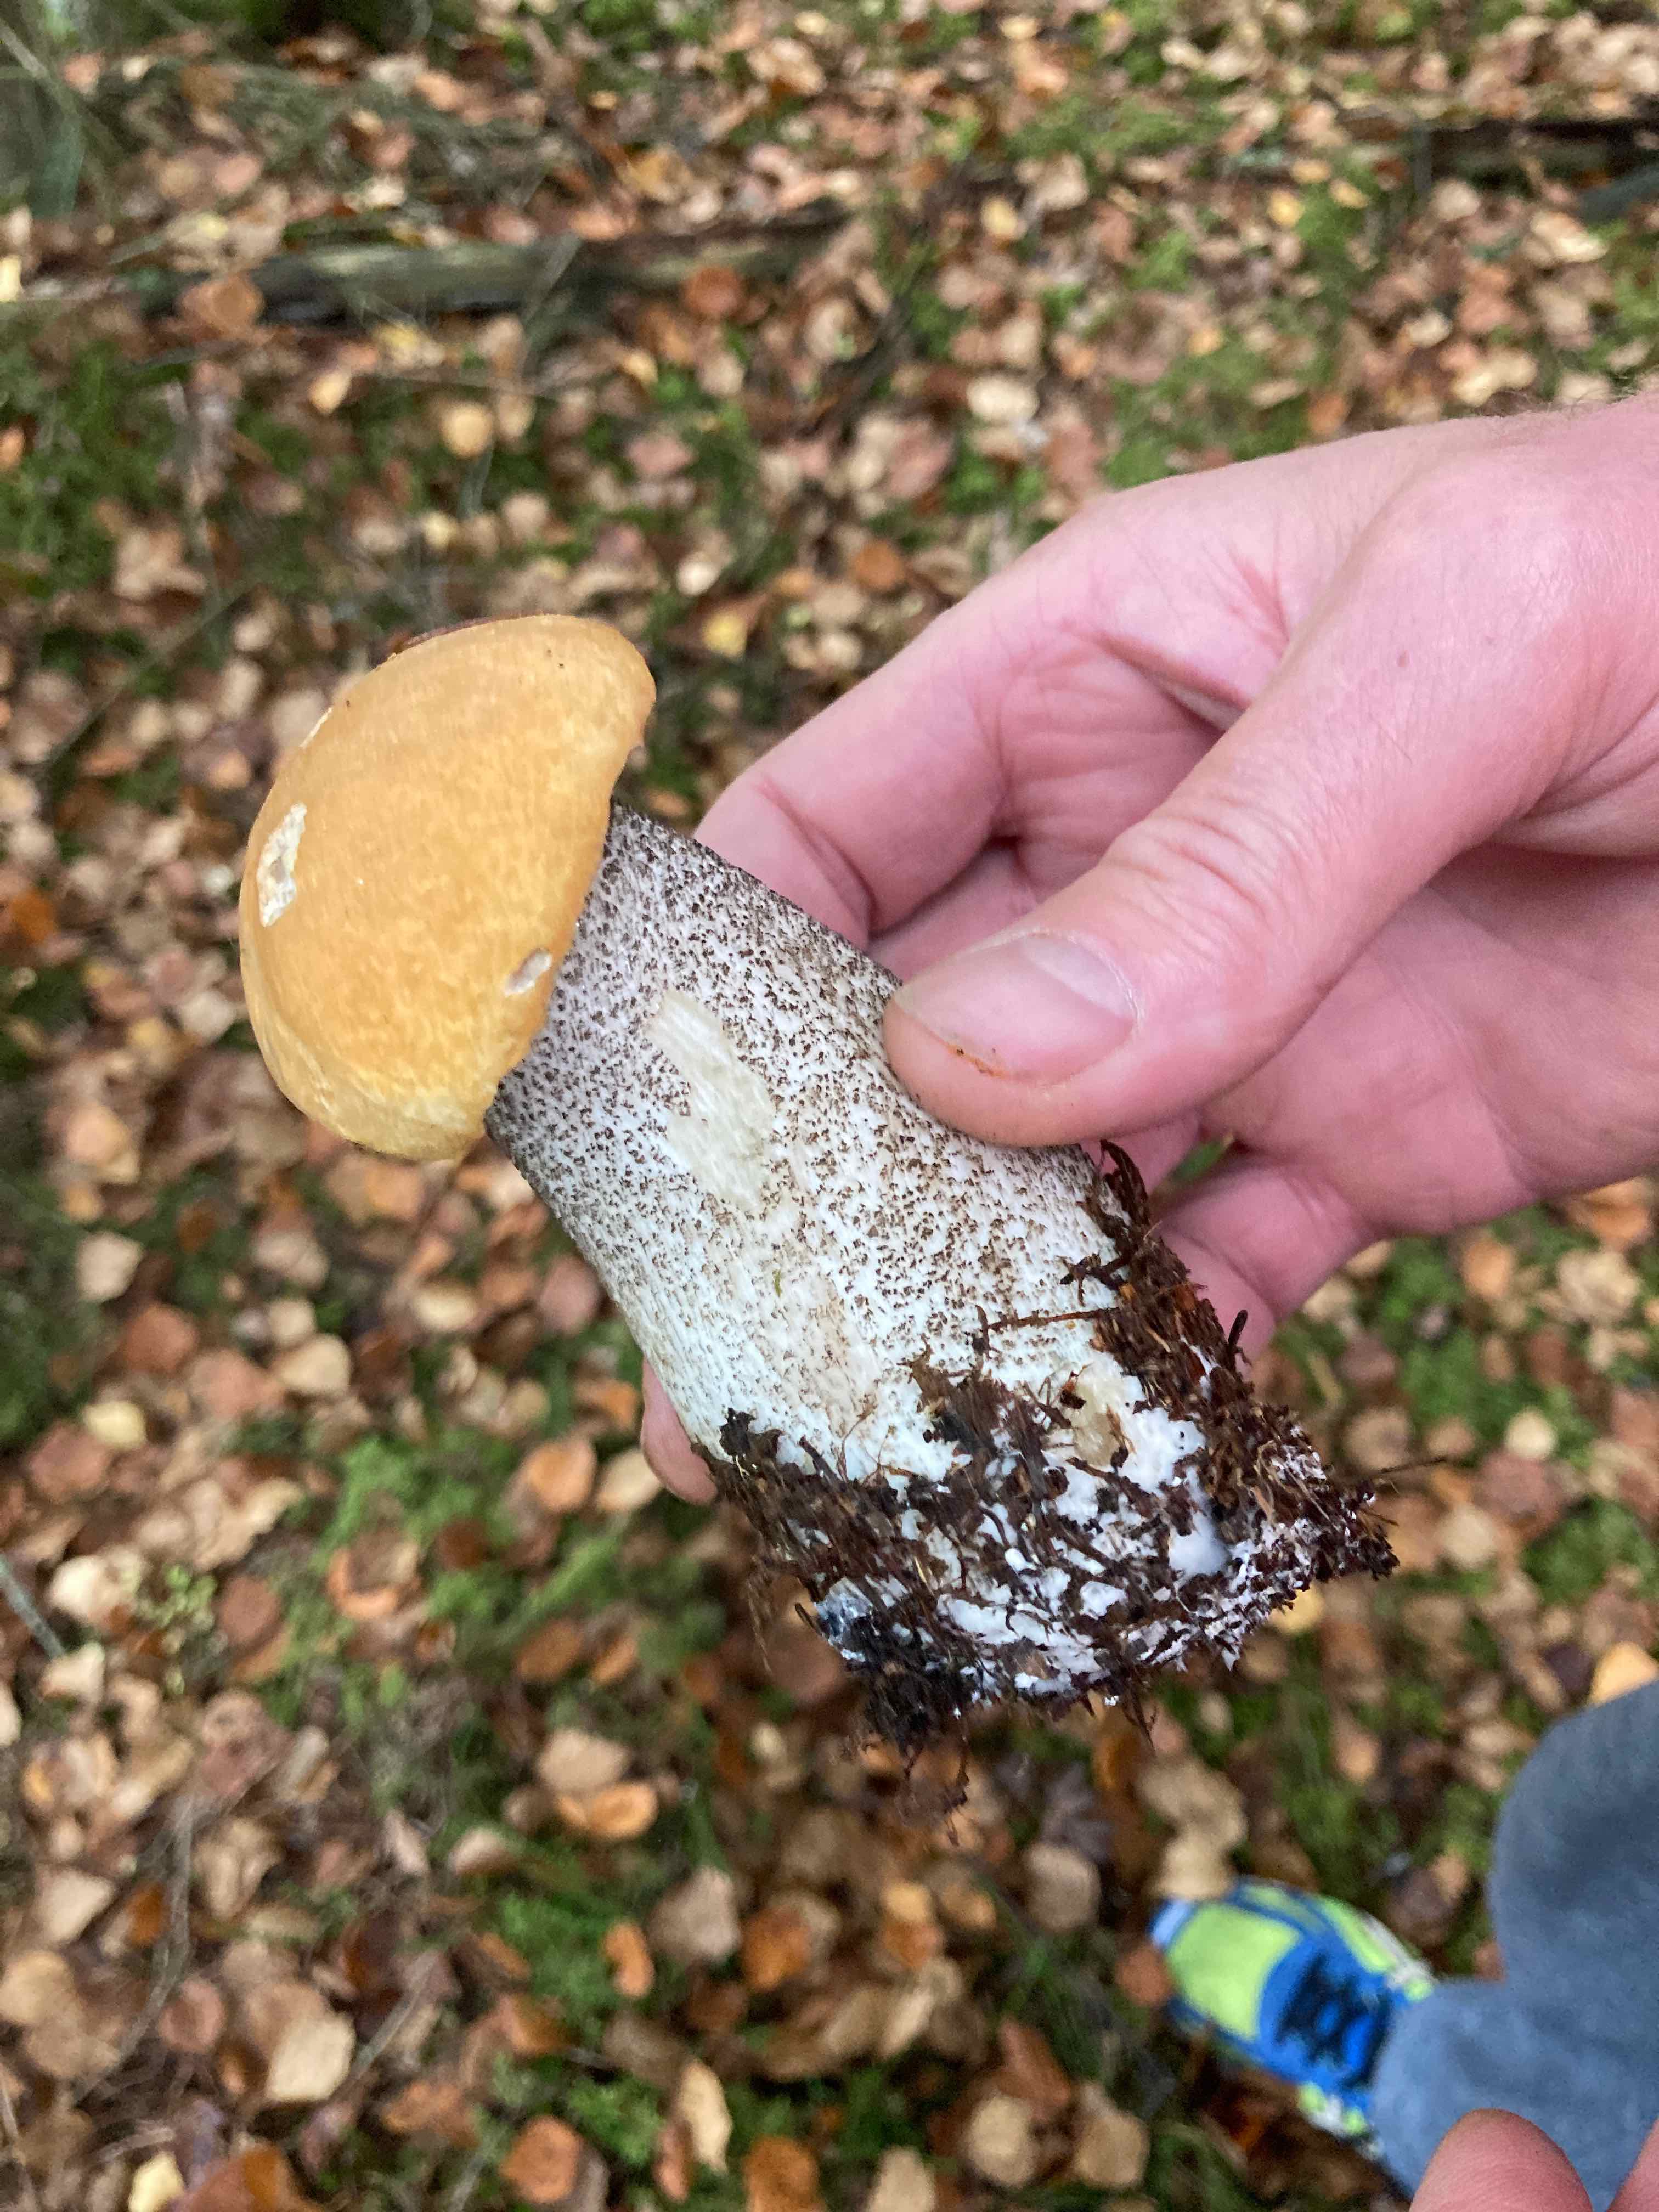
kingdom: Fungi
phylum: Basidiomycota
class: Agaricomycetes
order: Boletales
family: Boletaceae
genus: Leccinum
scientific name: Leccinum versipelle
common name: orange skælrørhat
